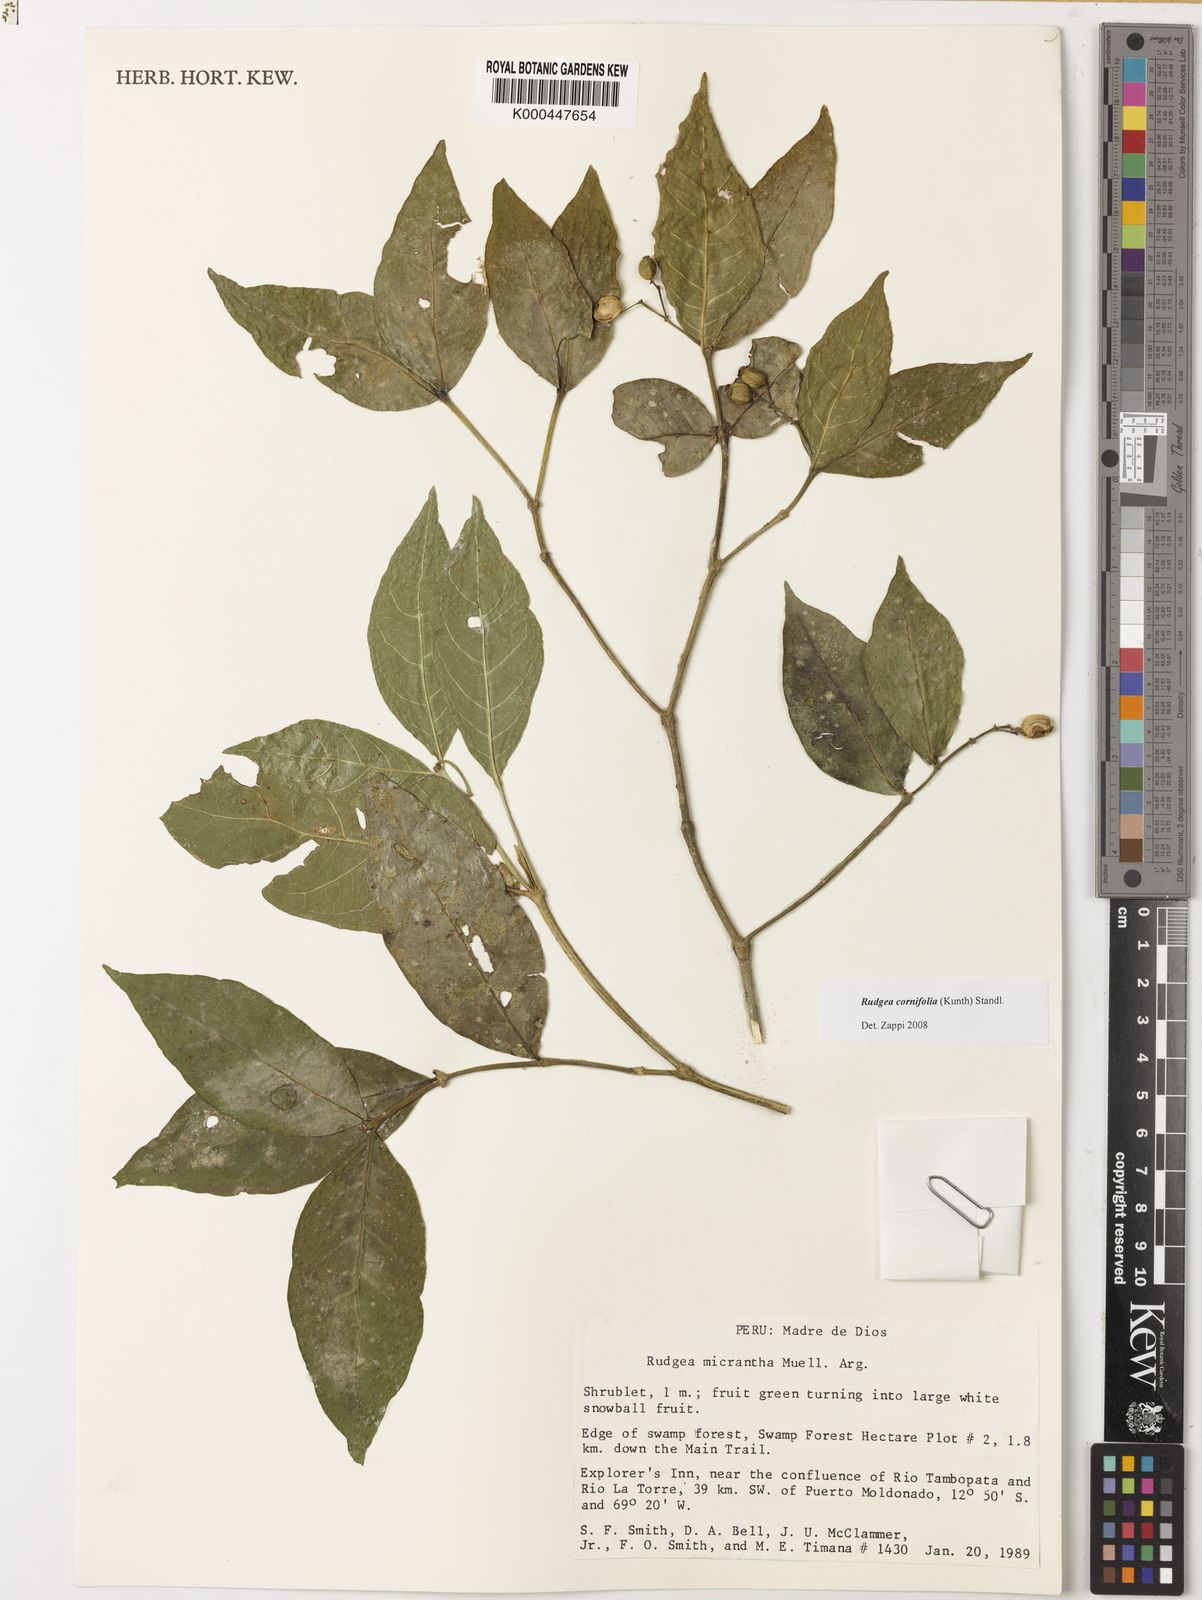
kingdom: Plantae
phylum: Tracheophyta
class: Magnoliopsida
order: Gentianales
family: Rubiaceae
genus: Rudgea
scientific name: Rudgea cornifolia
